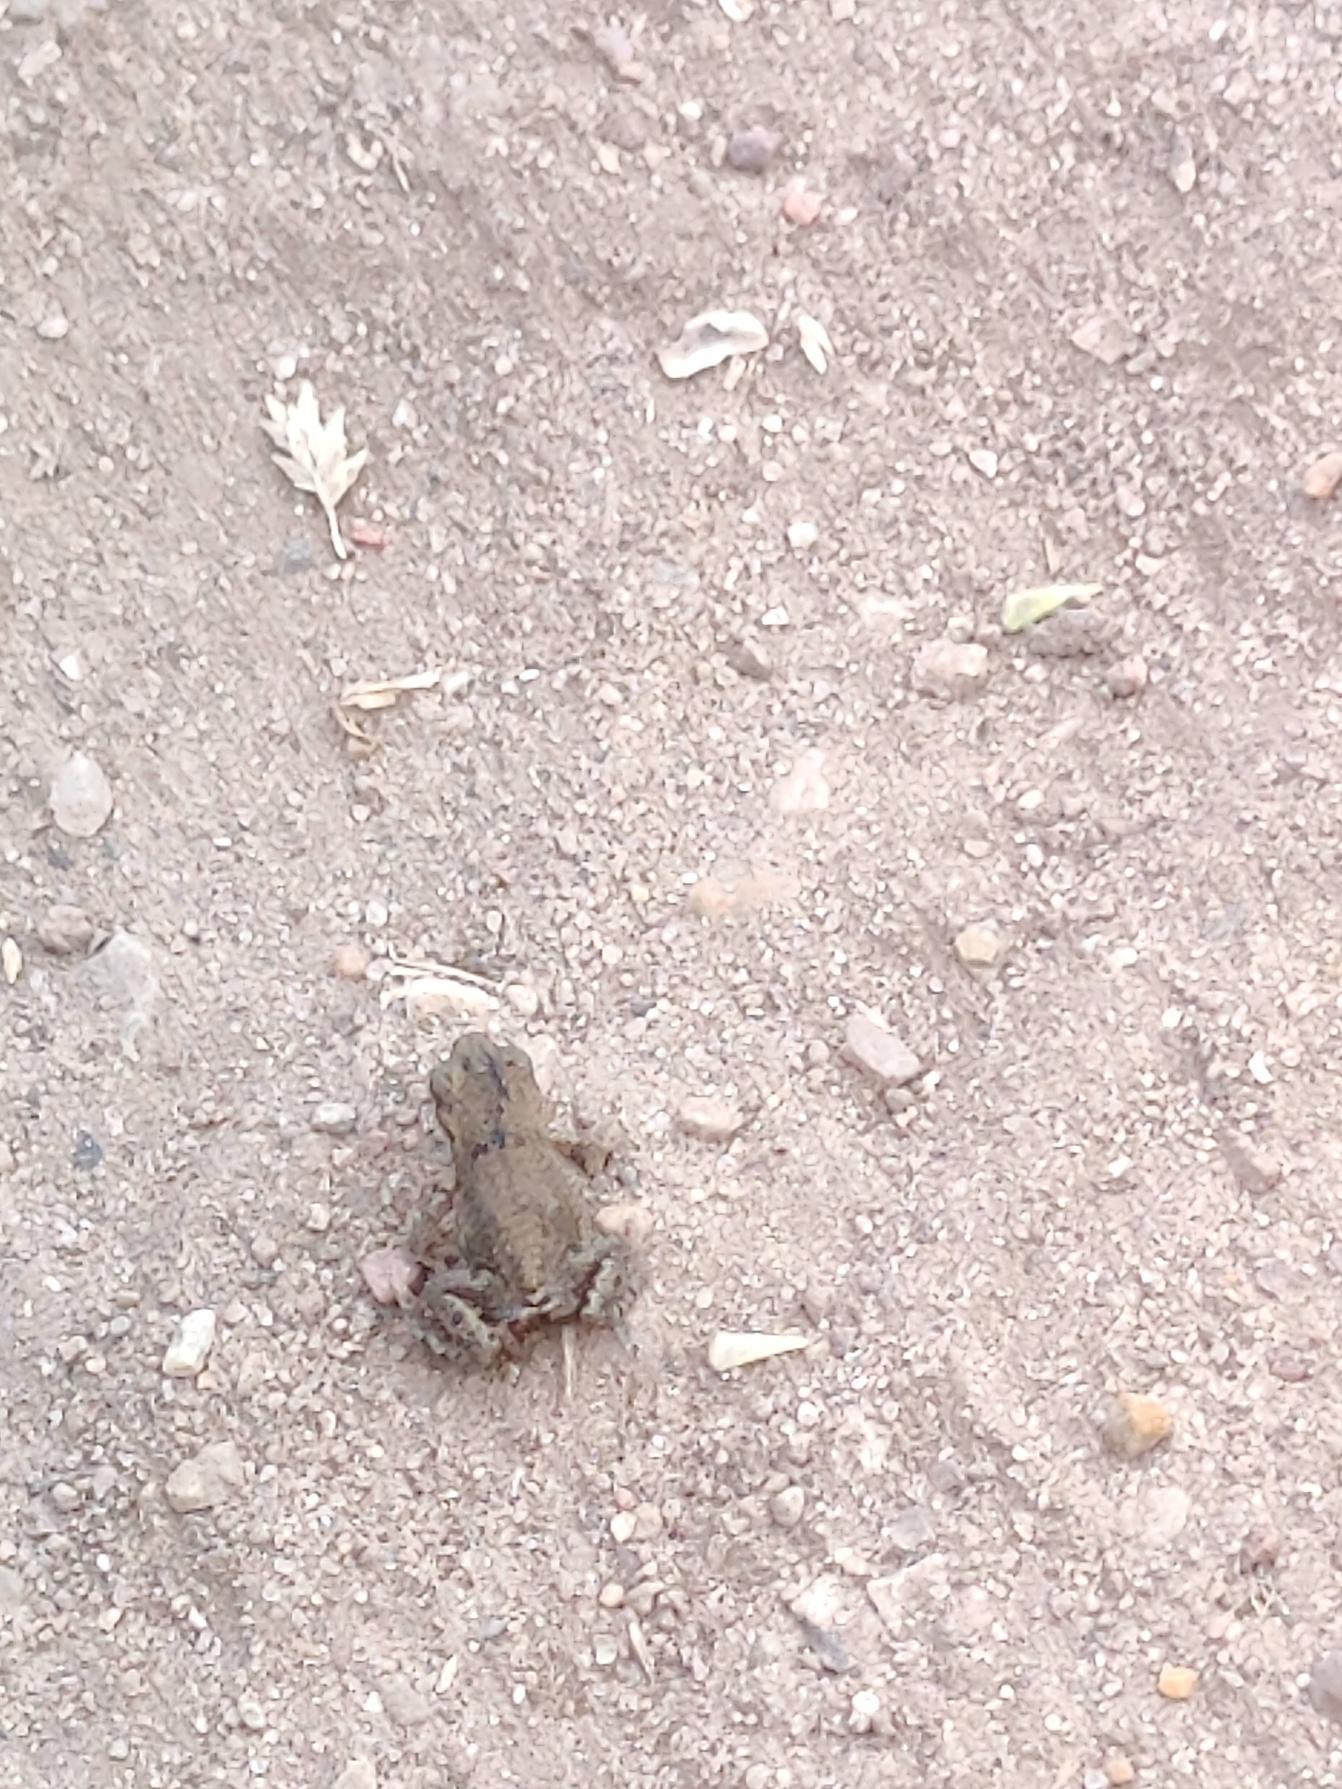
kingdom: Animalia
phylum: Chordata
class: Amphibia
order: Anura
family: Bufonidae
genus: Bufo
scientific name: Bufo bufo
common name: Skrubtudse
